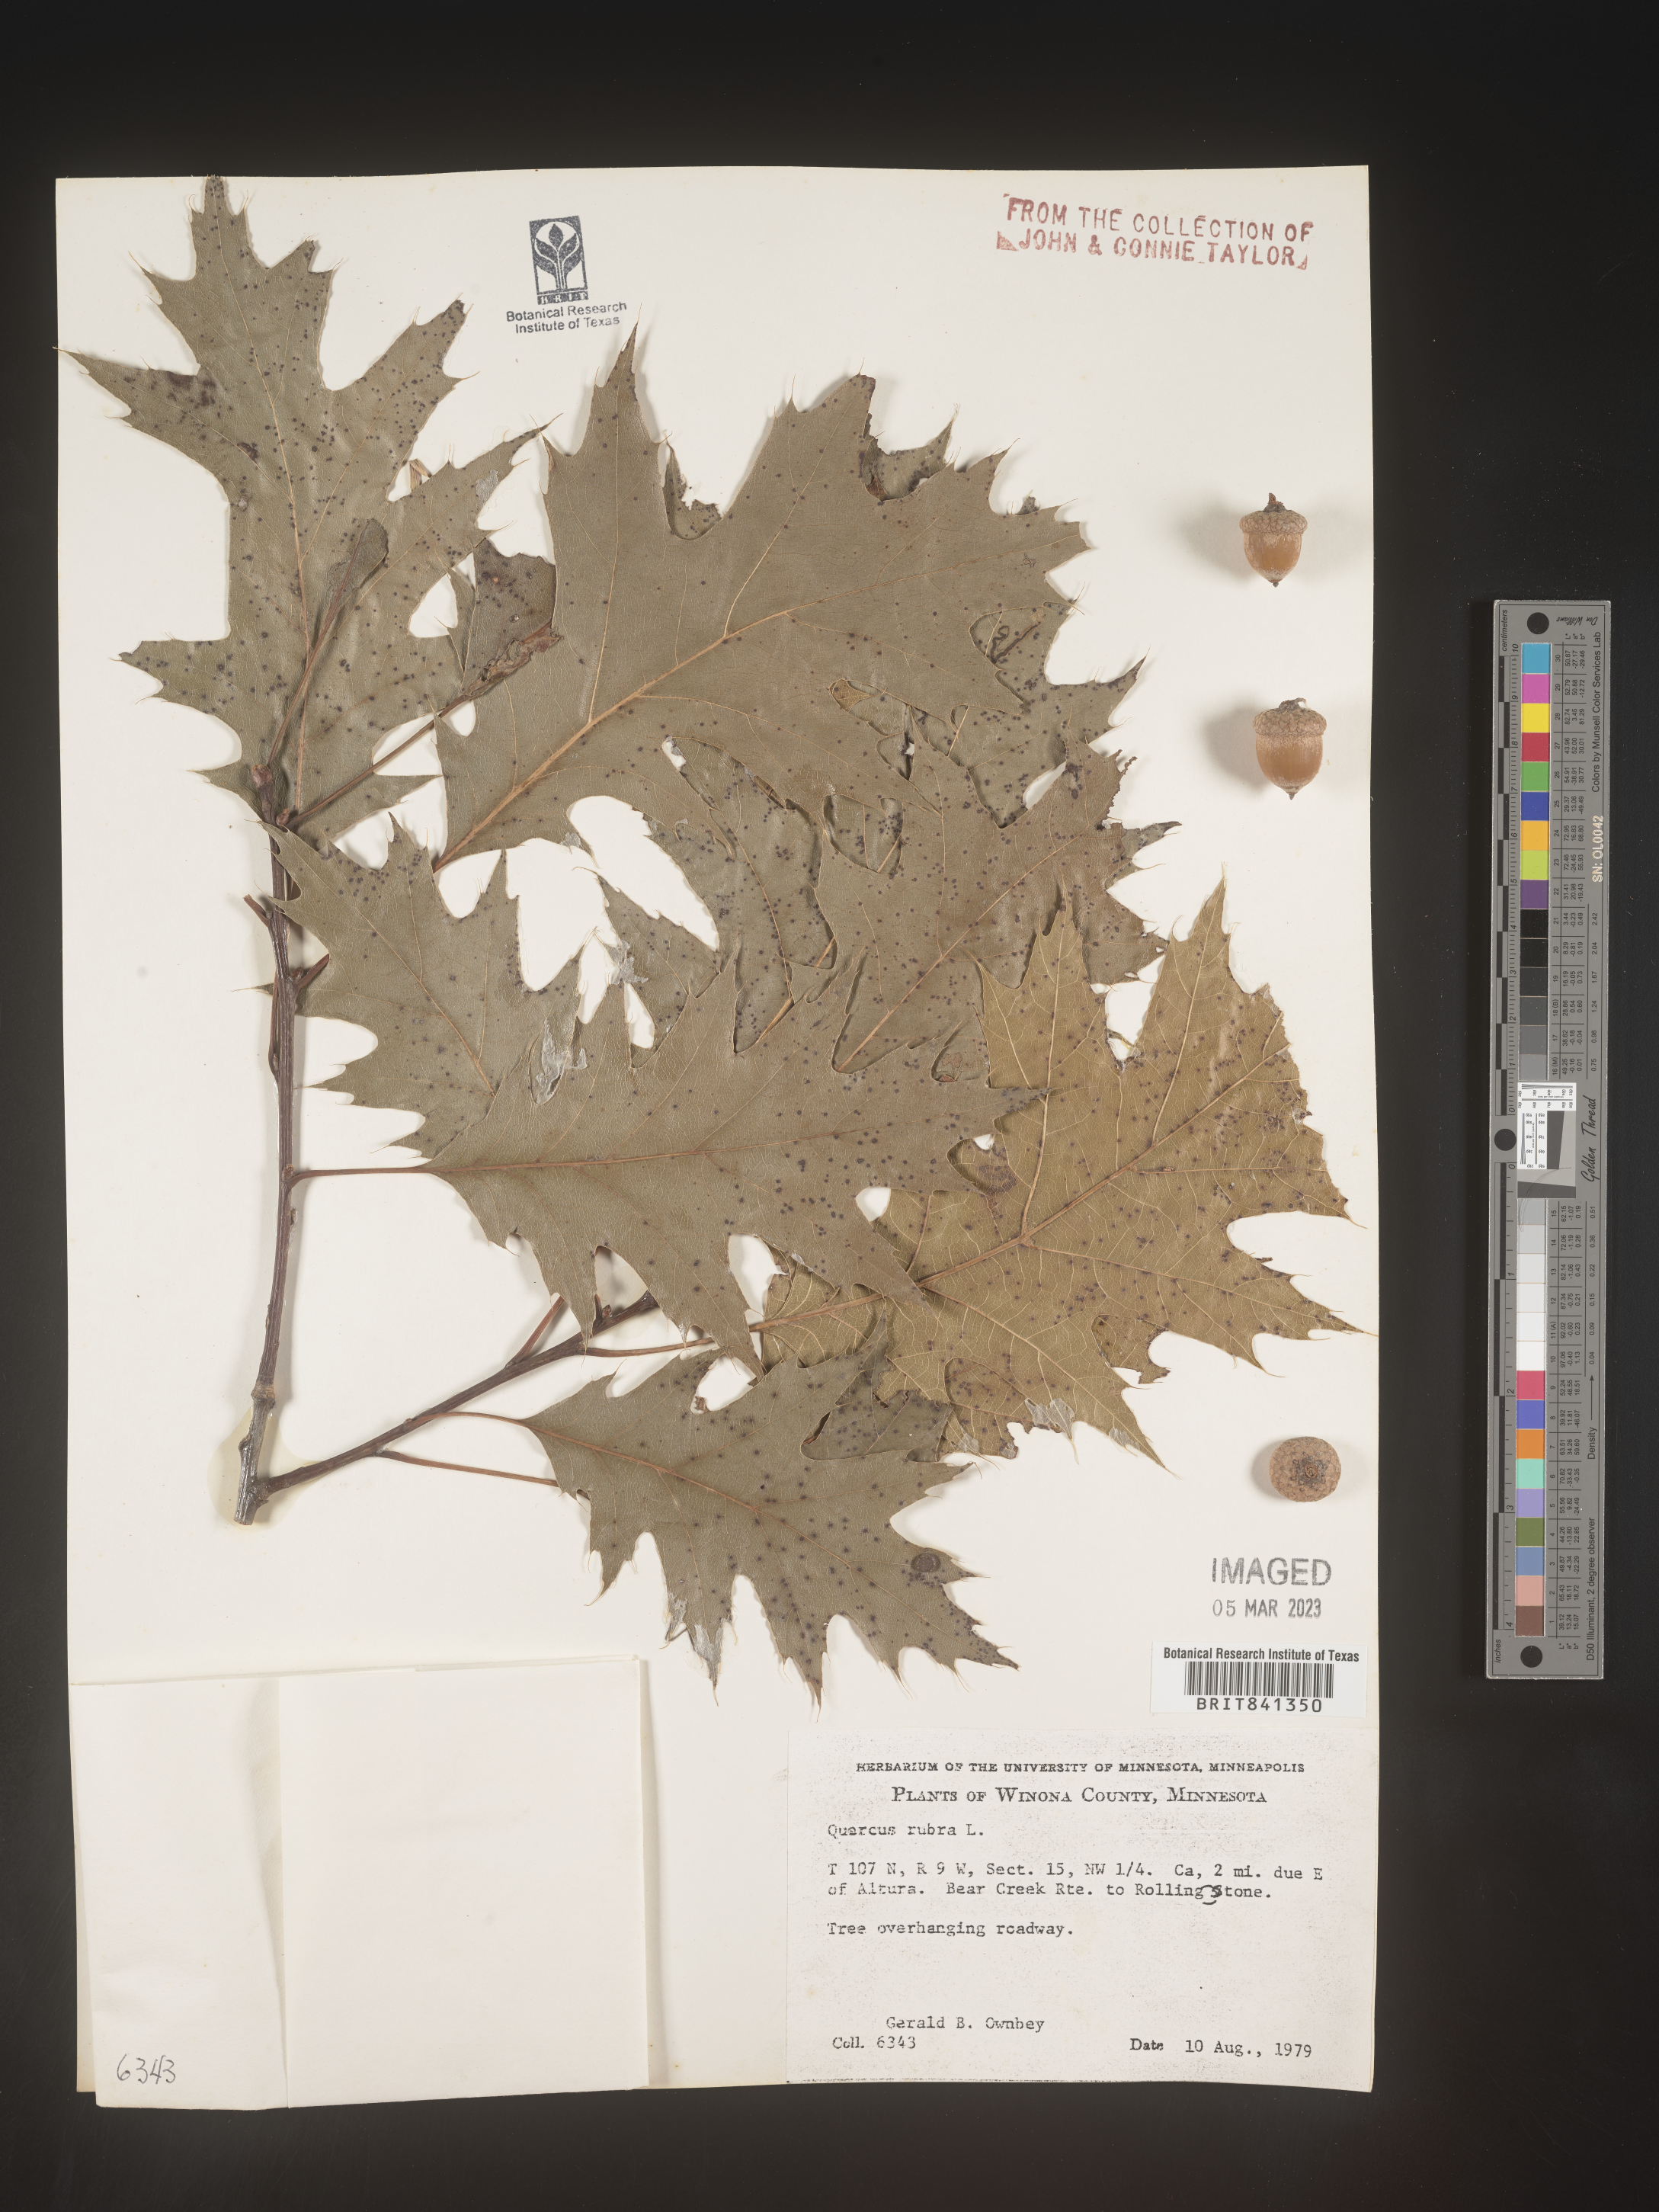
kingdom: Plantae
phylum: Tracheophyta
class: Magnoliopsida
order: Fagales
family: Fagaceae
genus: Quercus
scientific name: Quercus rubra
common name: Red oak
